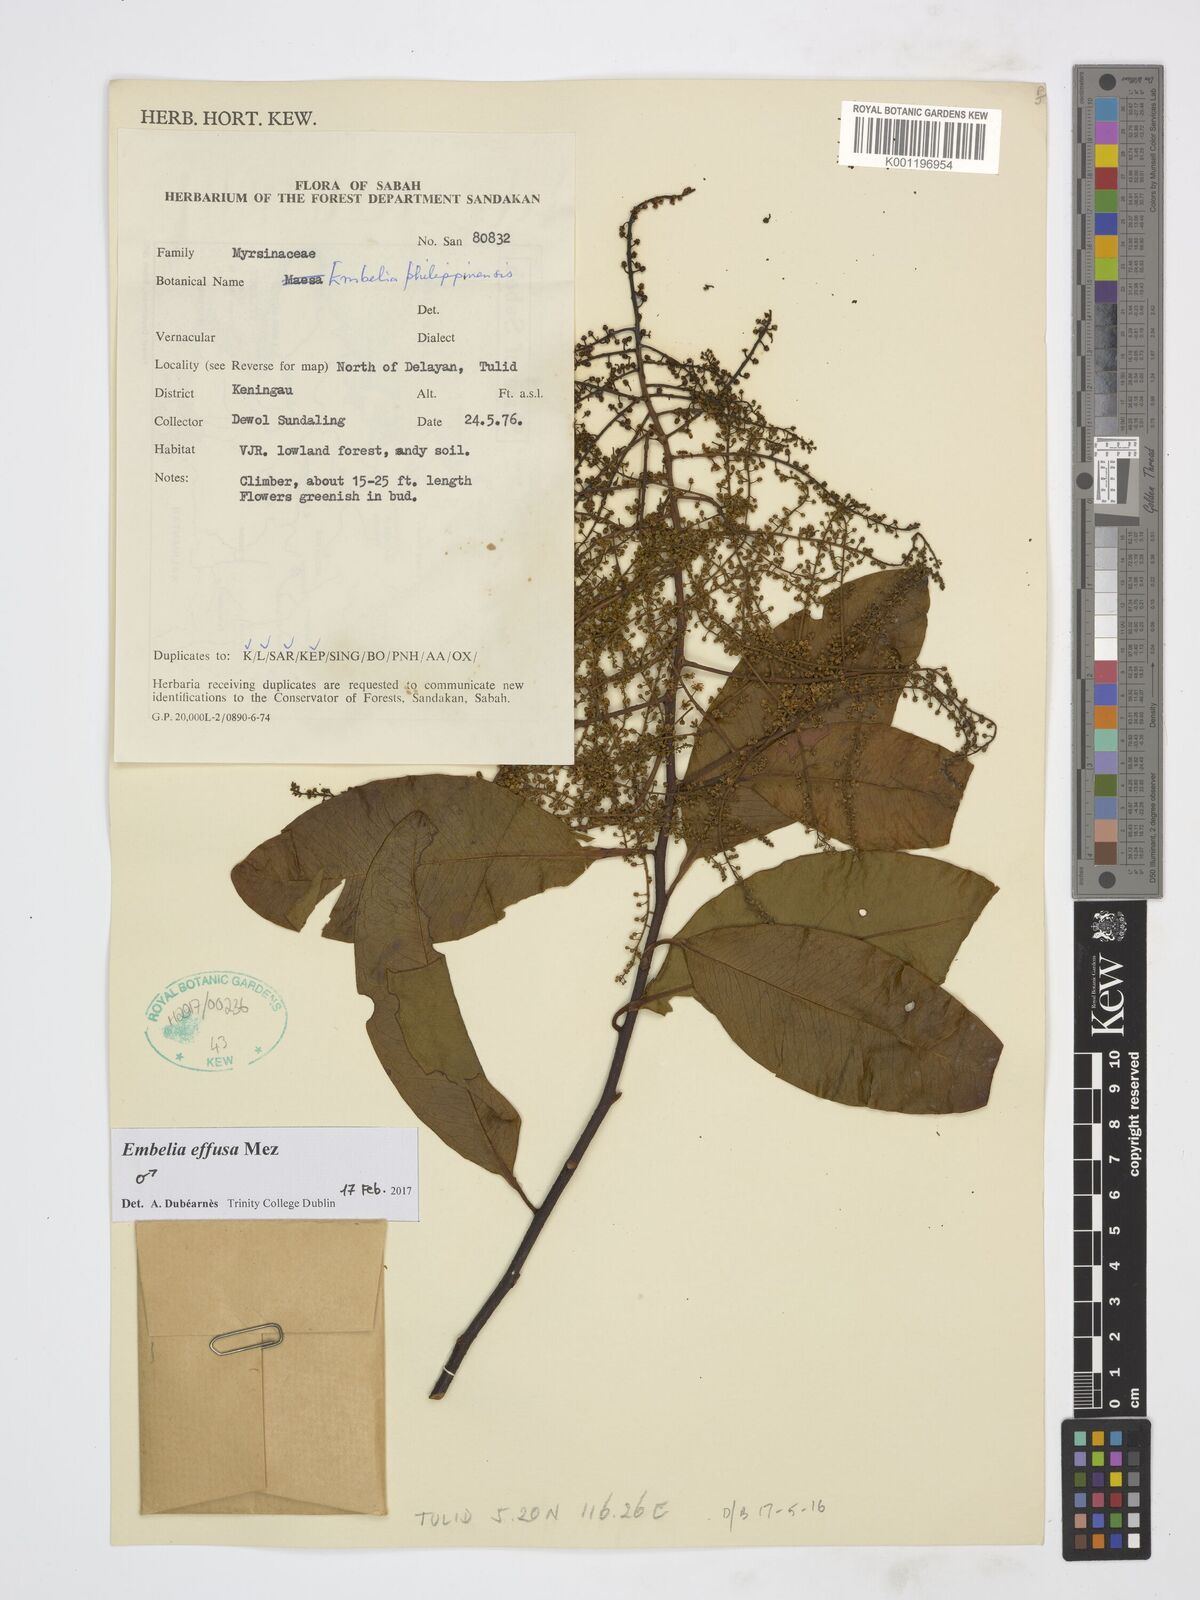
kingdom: Plantae
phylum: Tracheophyta
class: Magnoliopsida
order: Ericales
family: Primulaceae
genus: Embelia
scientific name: Embelia effusa
